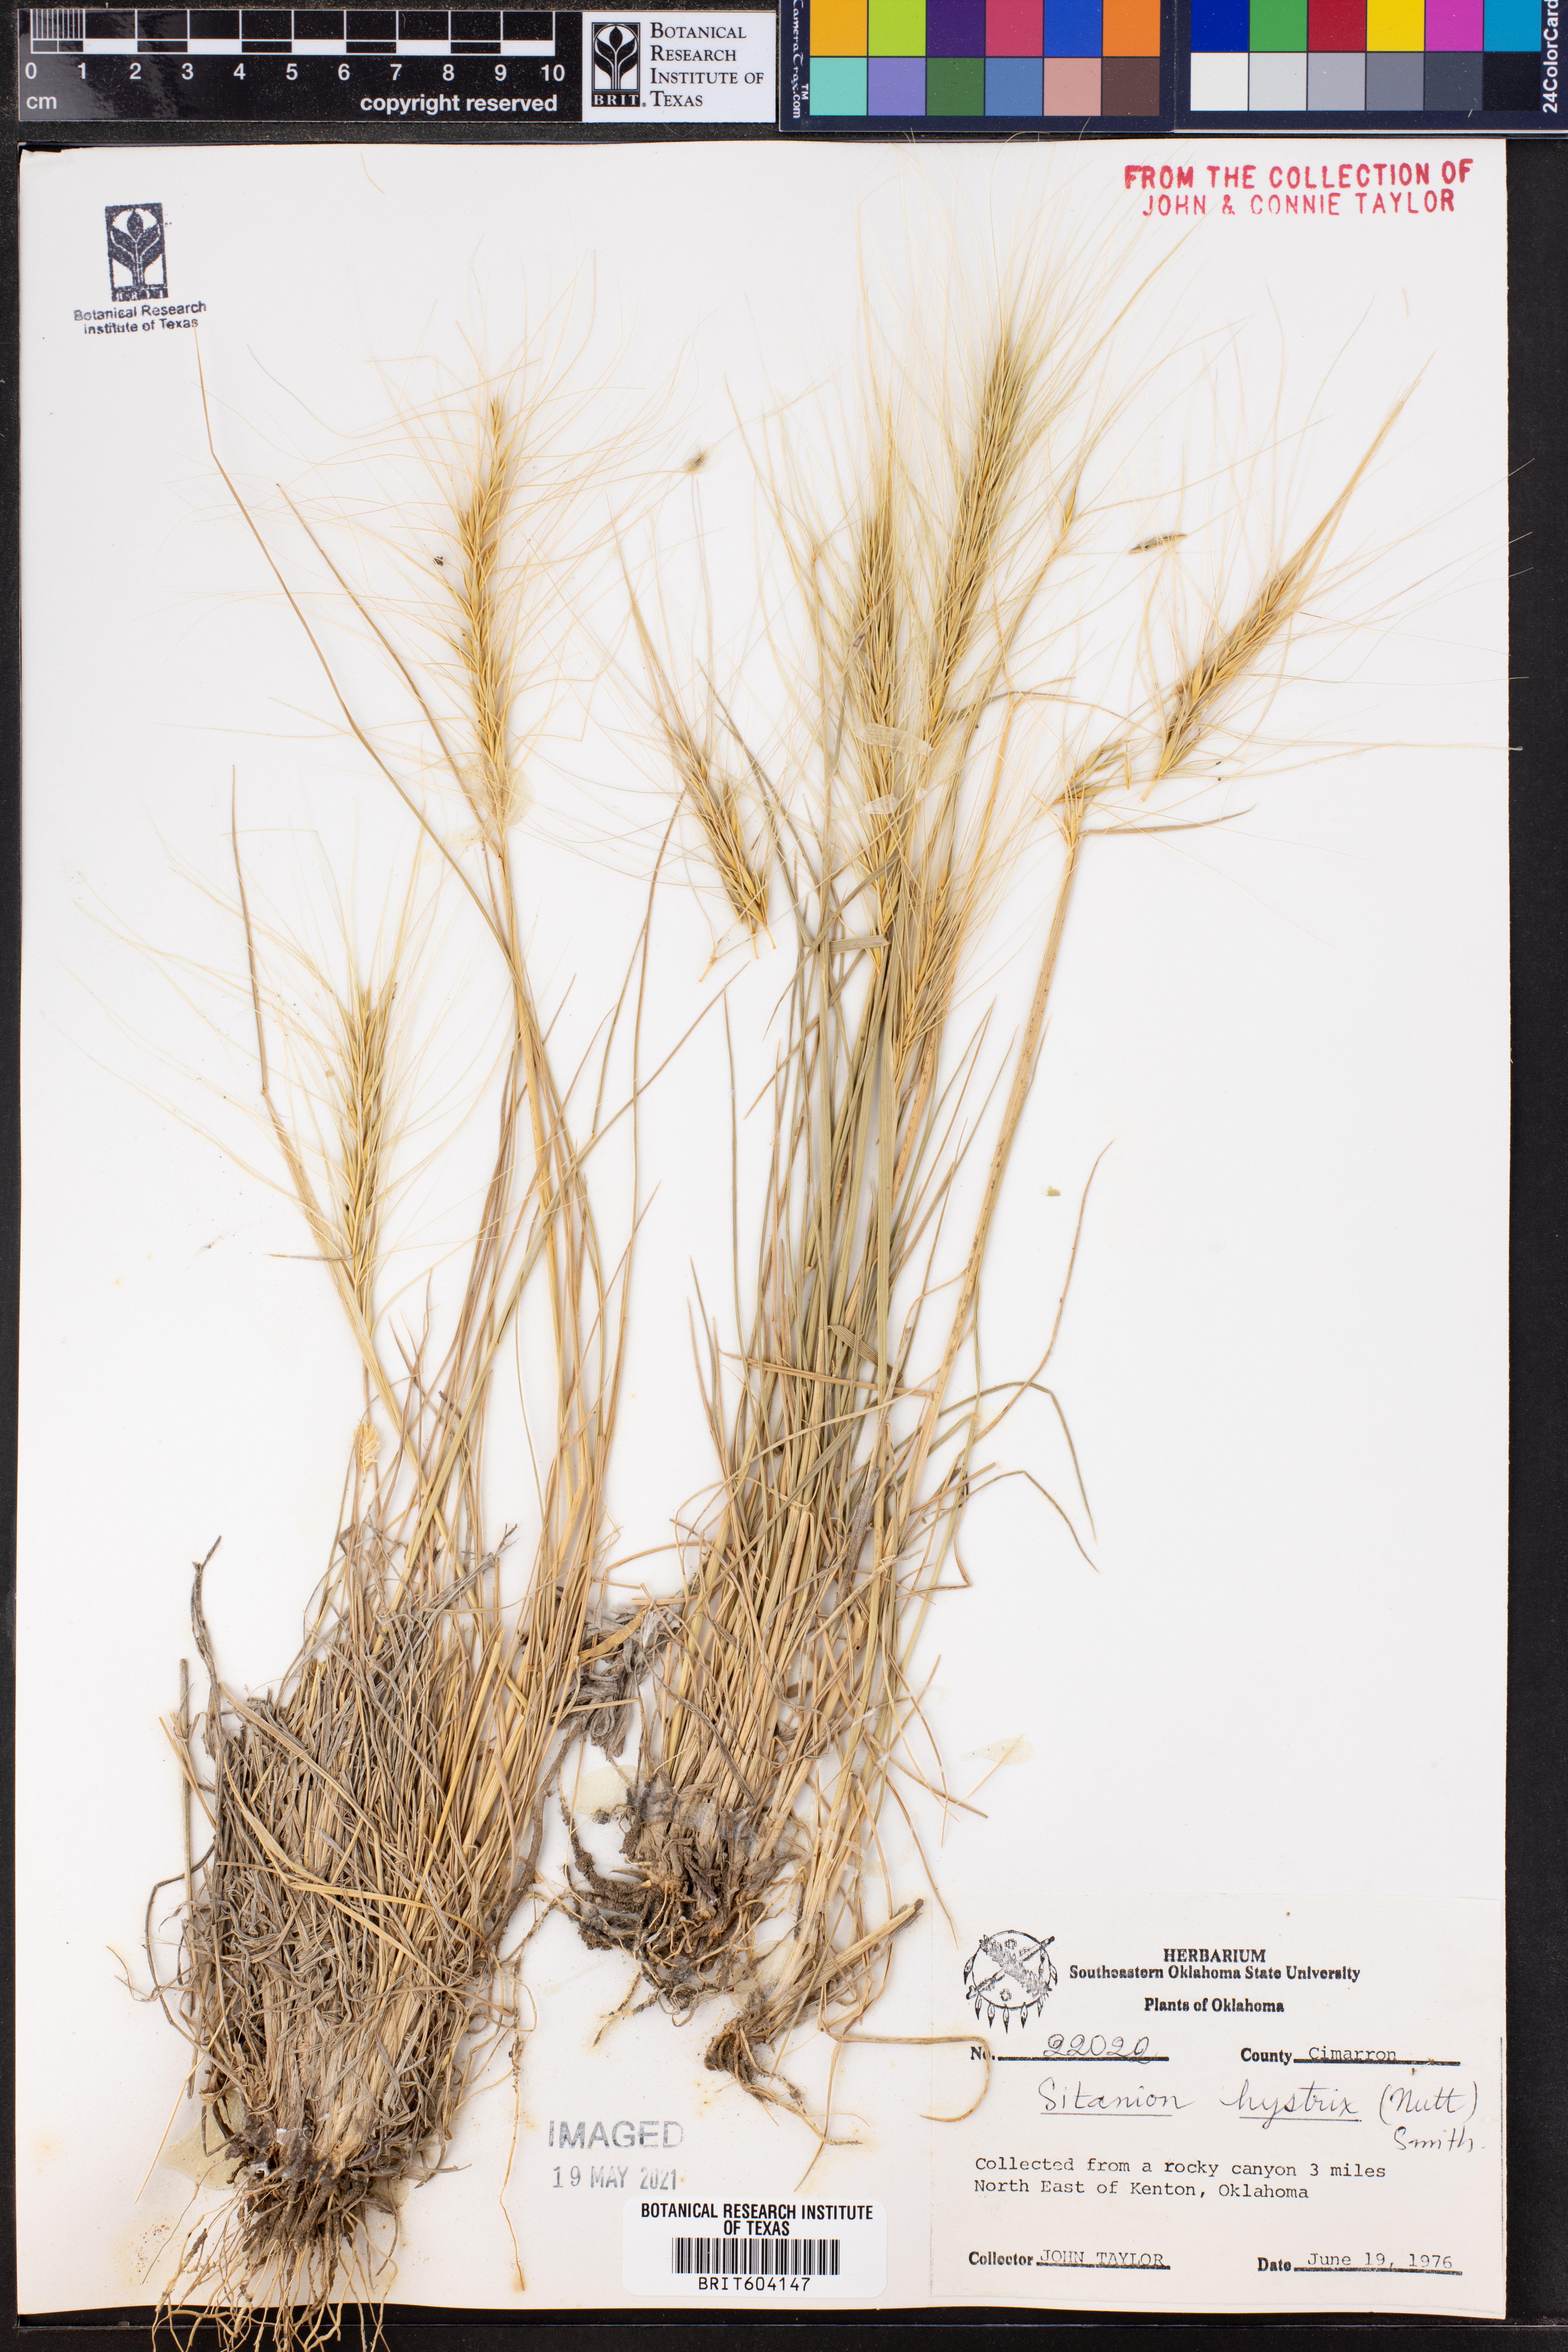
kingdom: Plantae
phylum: Tracheophyta
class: Liliopsida
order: Poales
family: Poaceae
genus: Elymus
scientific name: Elymus elymoides
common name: Bottlebrush squirreltail
